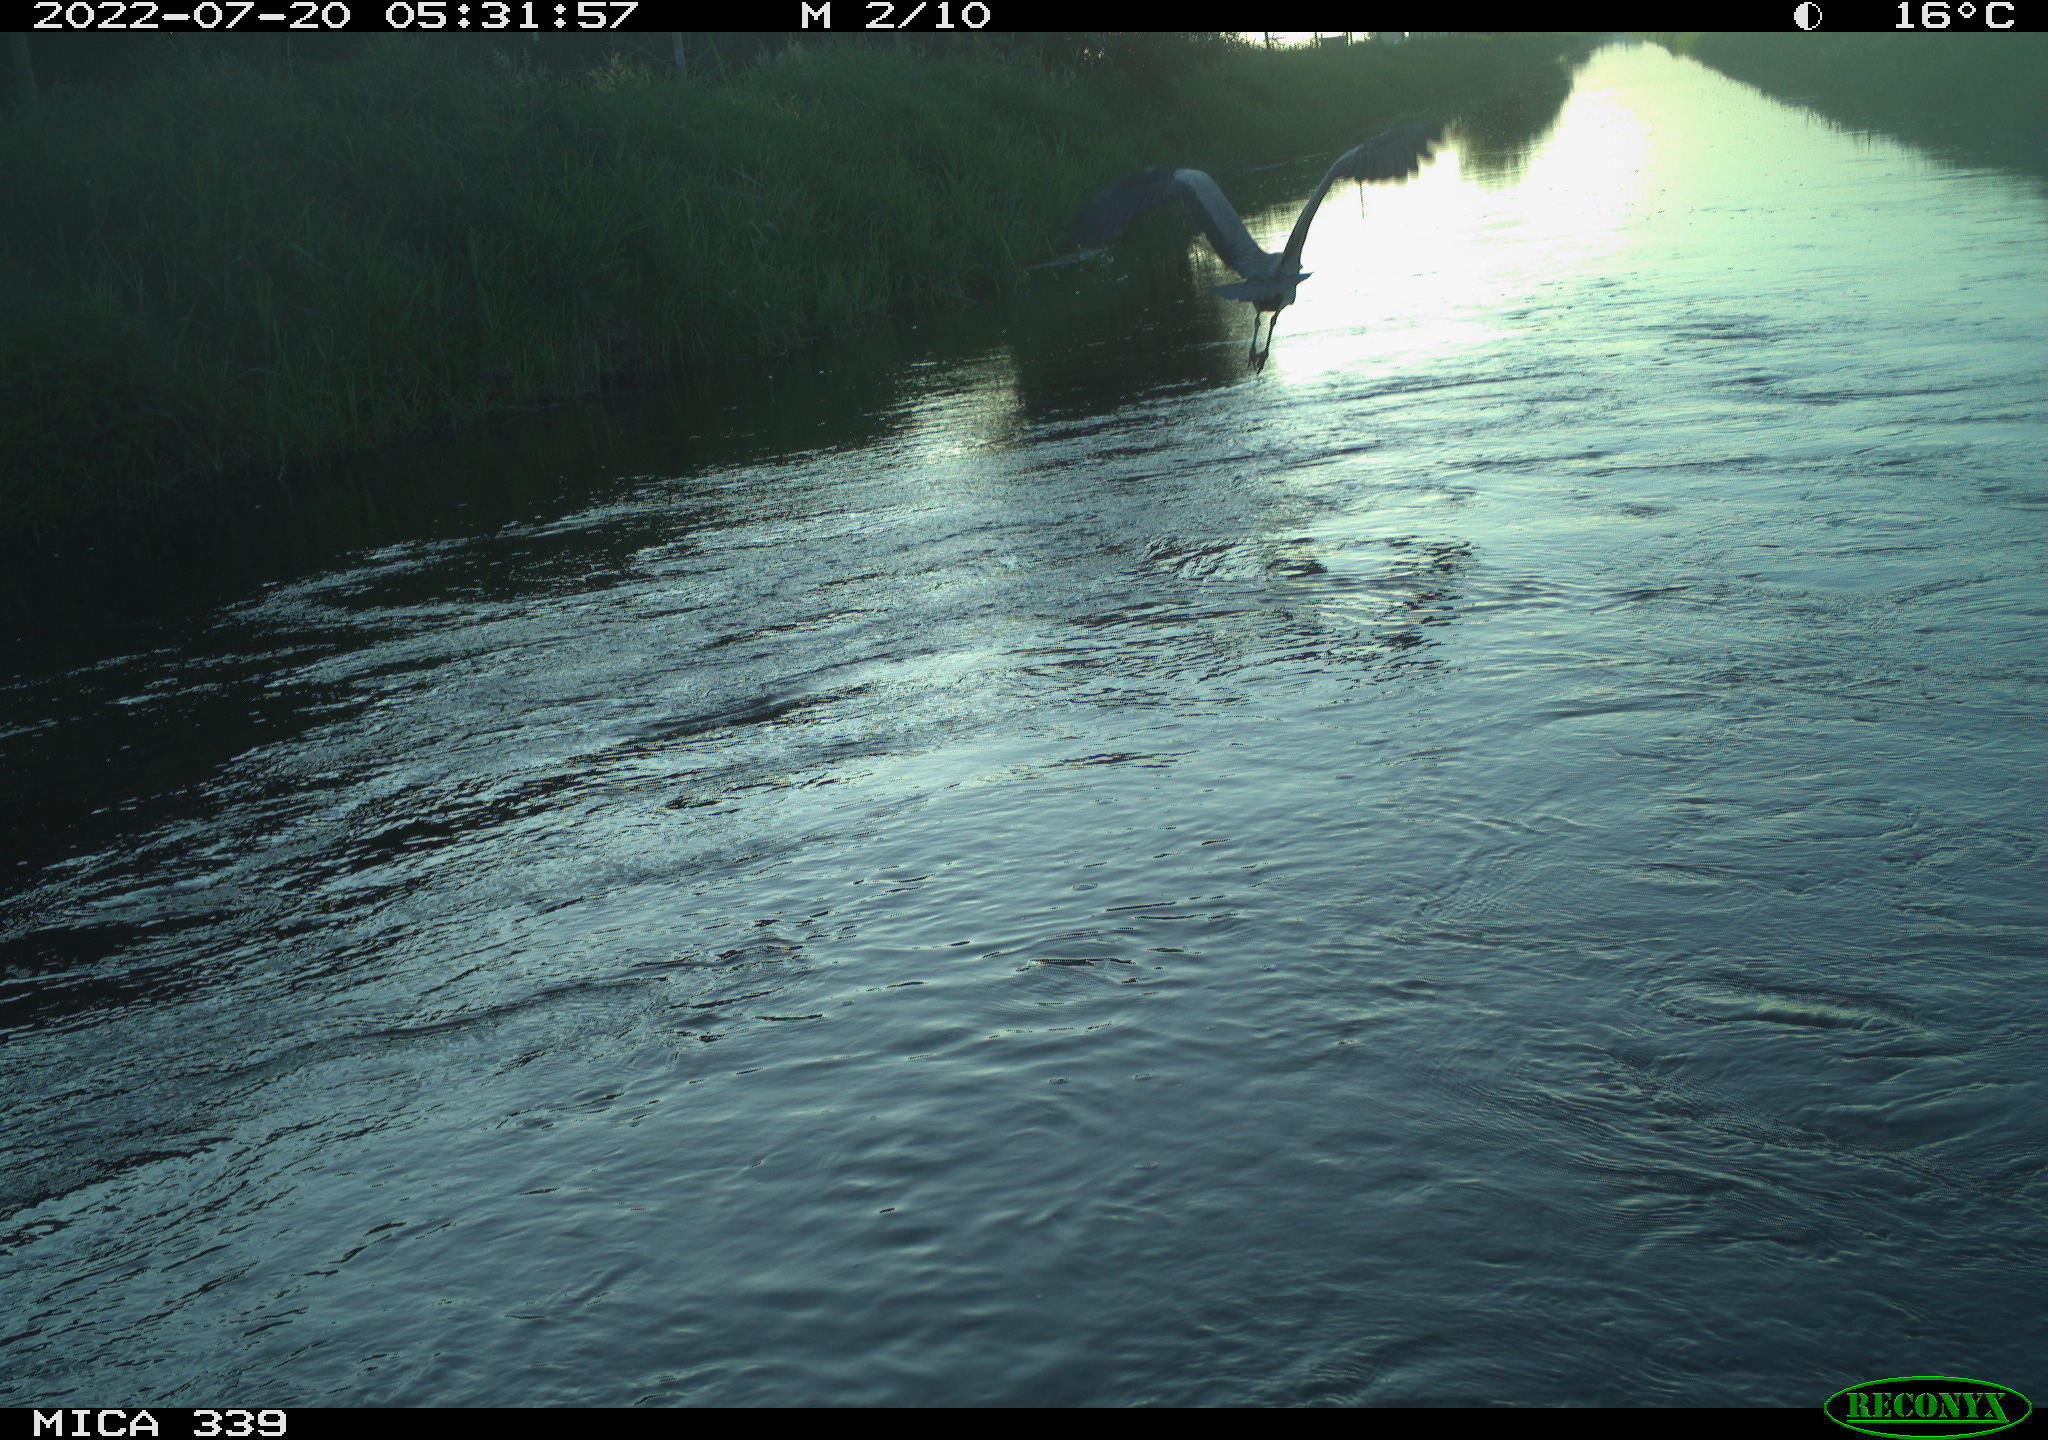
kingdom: Animalia
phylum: Chordata
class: Aves
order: Pelecaniformes
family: Ardeidae
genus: Ardea
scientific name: Ardea cinerea
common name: Grey heron
